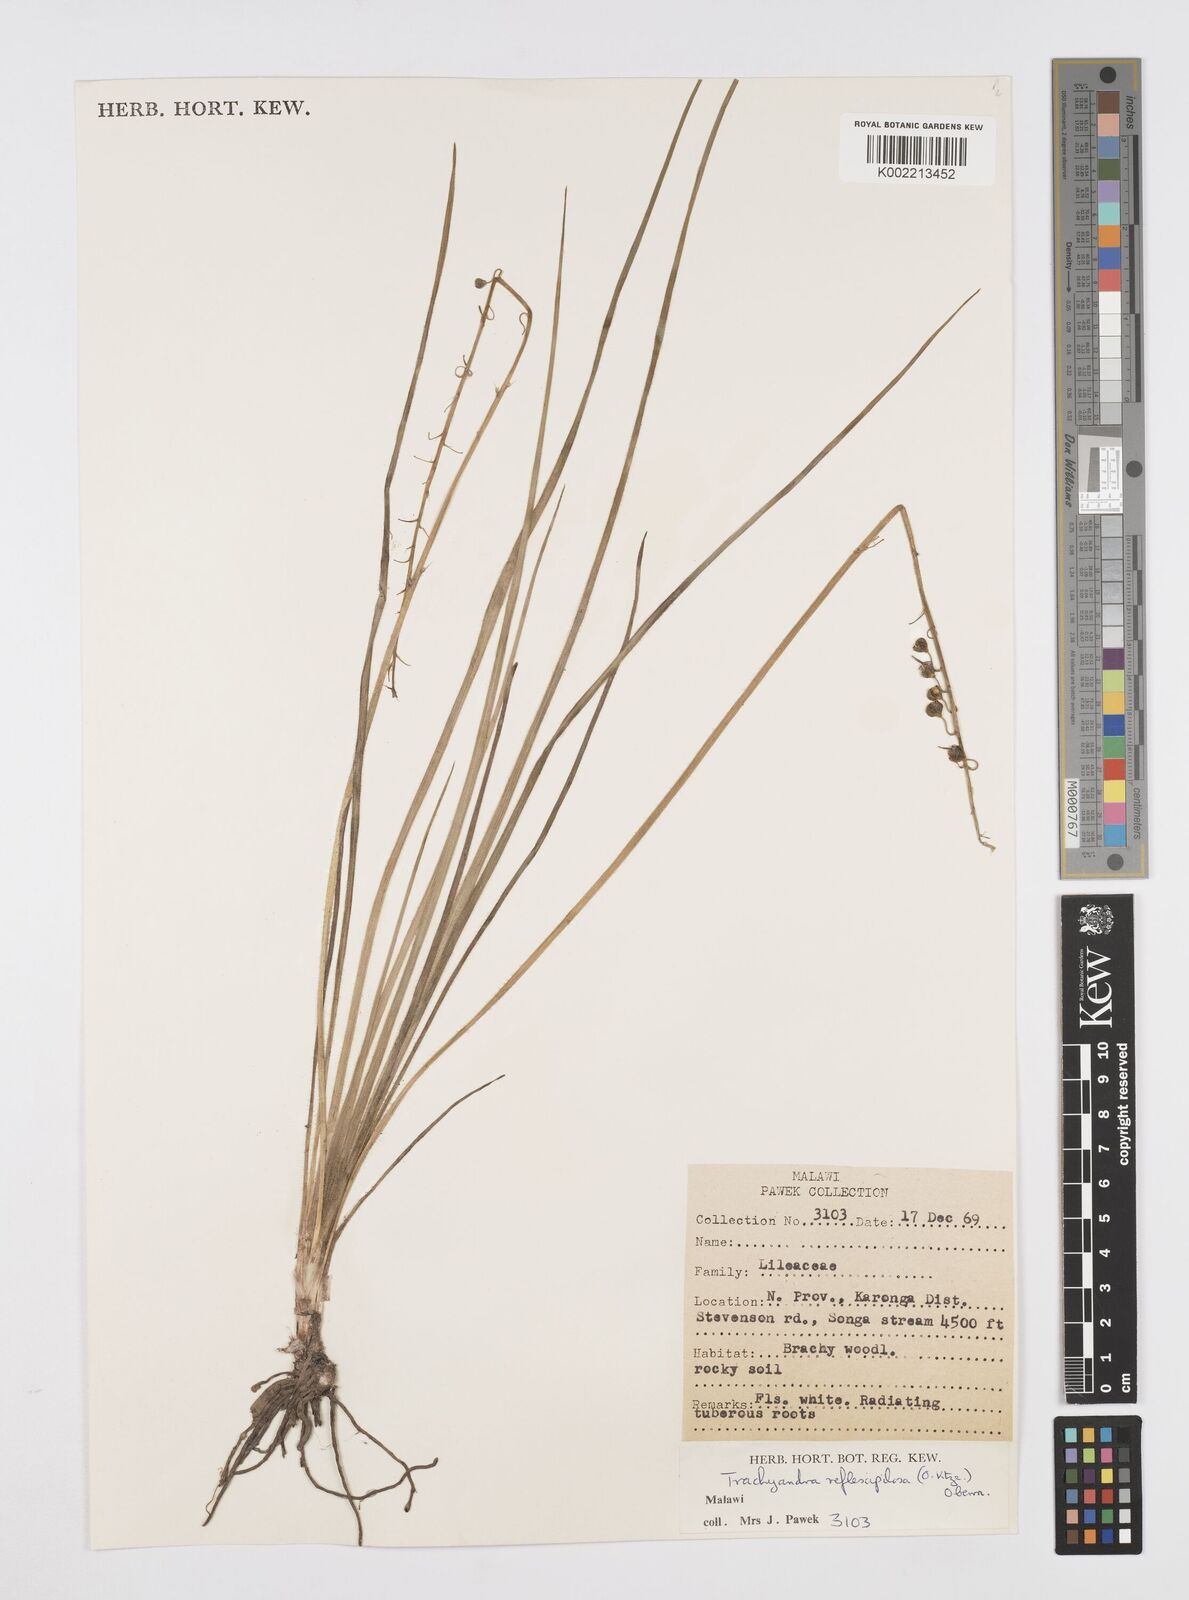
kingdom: Plantae
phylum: Tracheophyta
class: Liliopsida
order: Asparagales
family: Asphodelaceae
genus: Trachyandra
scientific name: Trachyandra saltii
